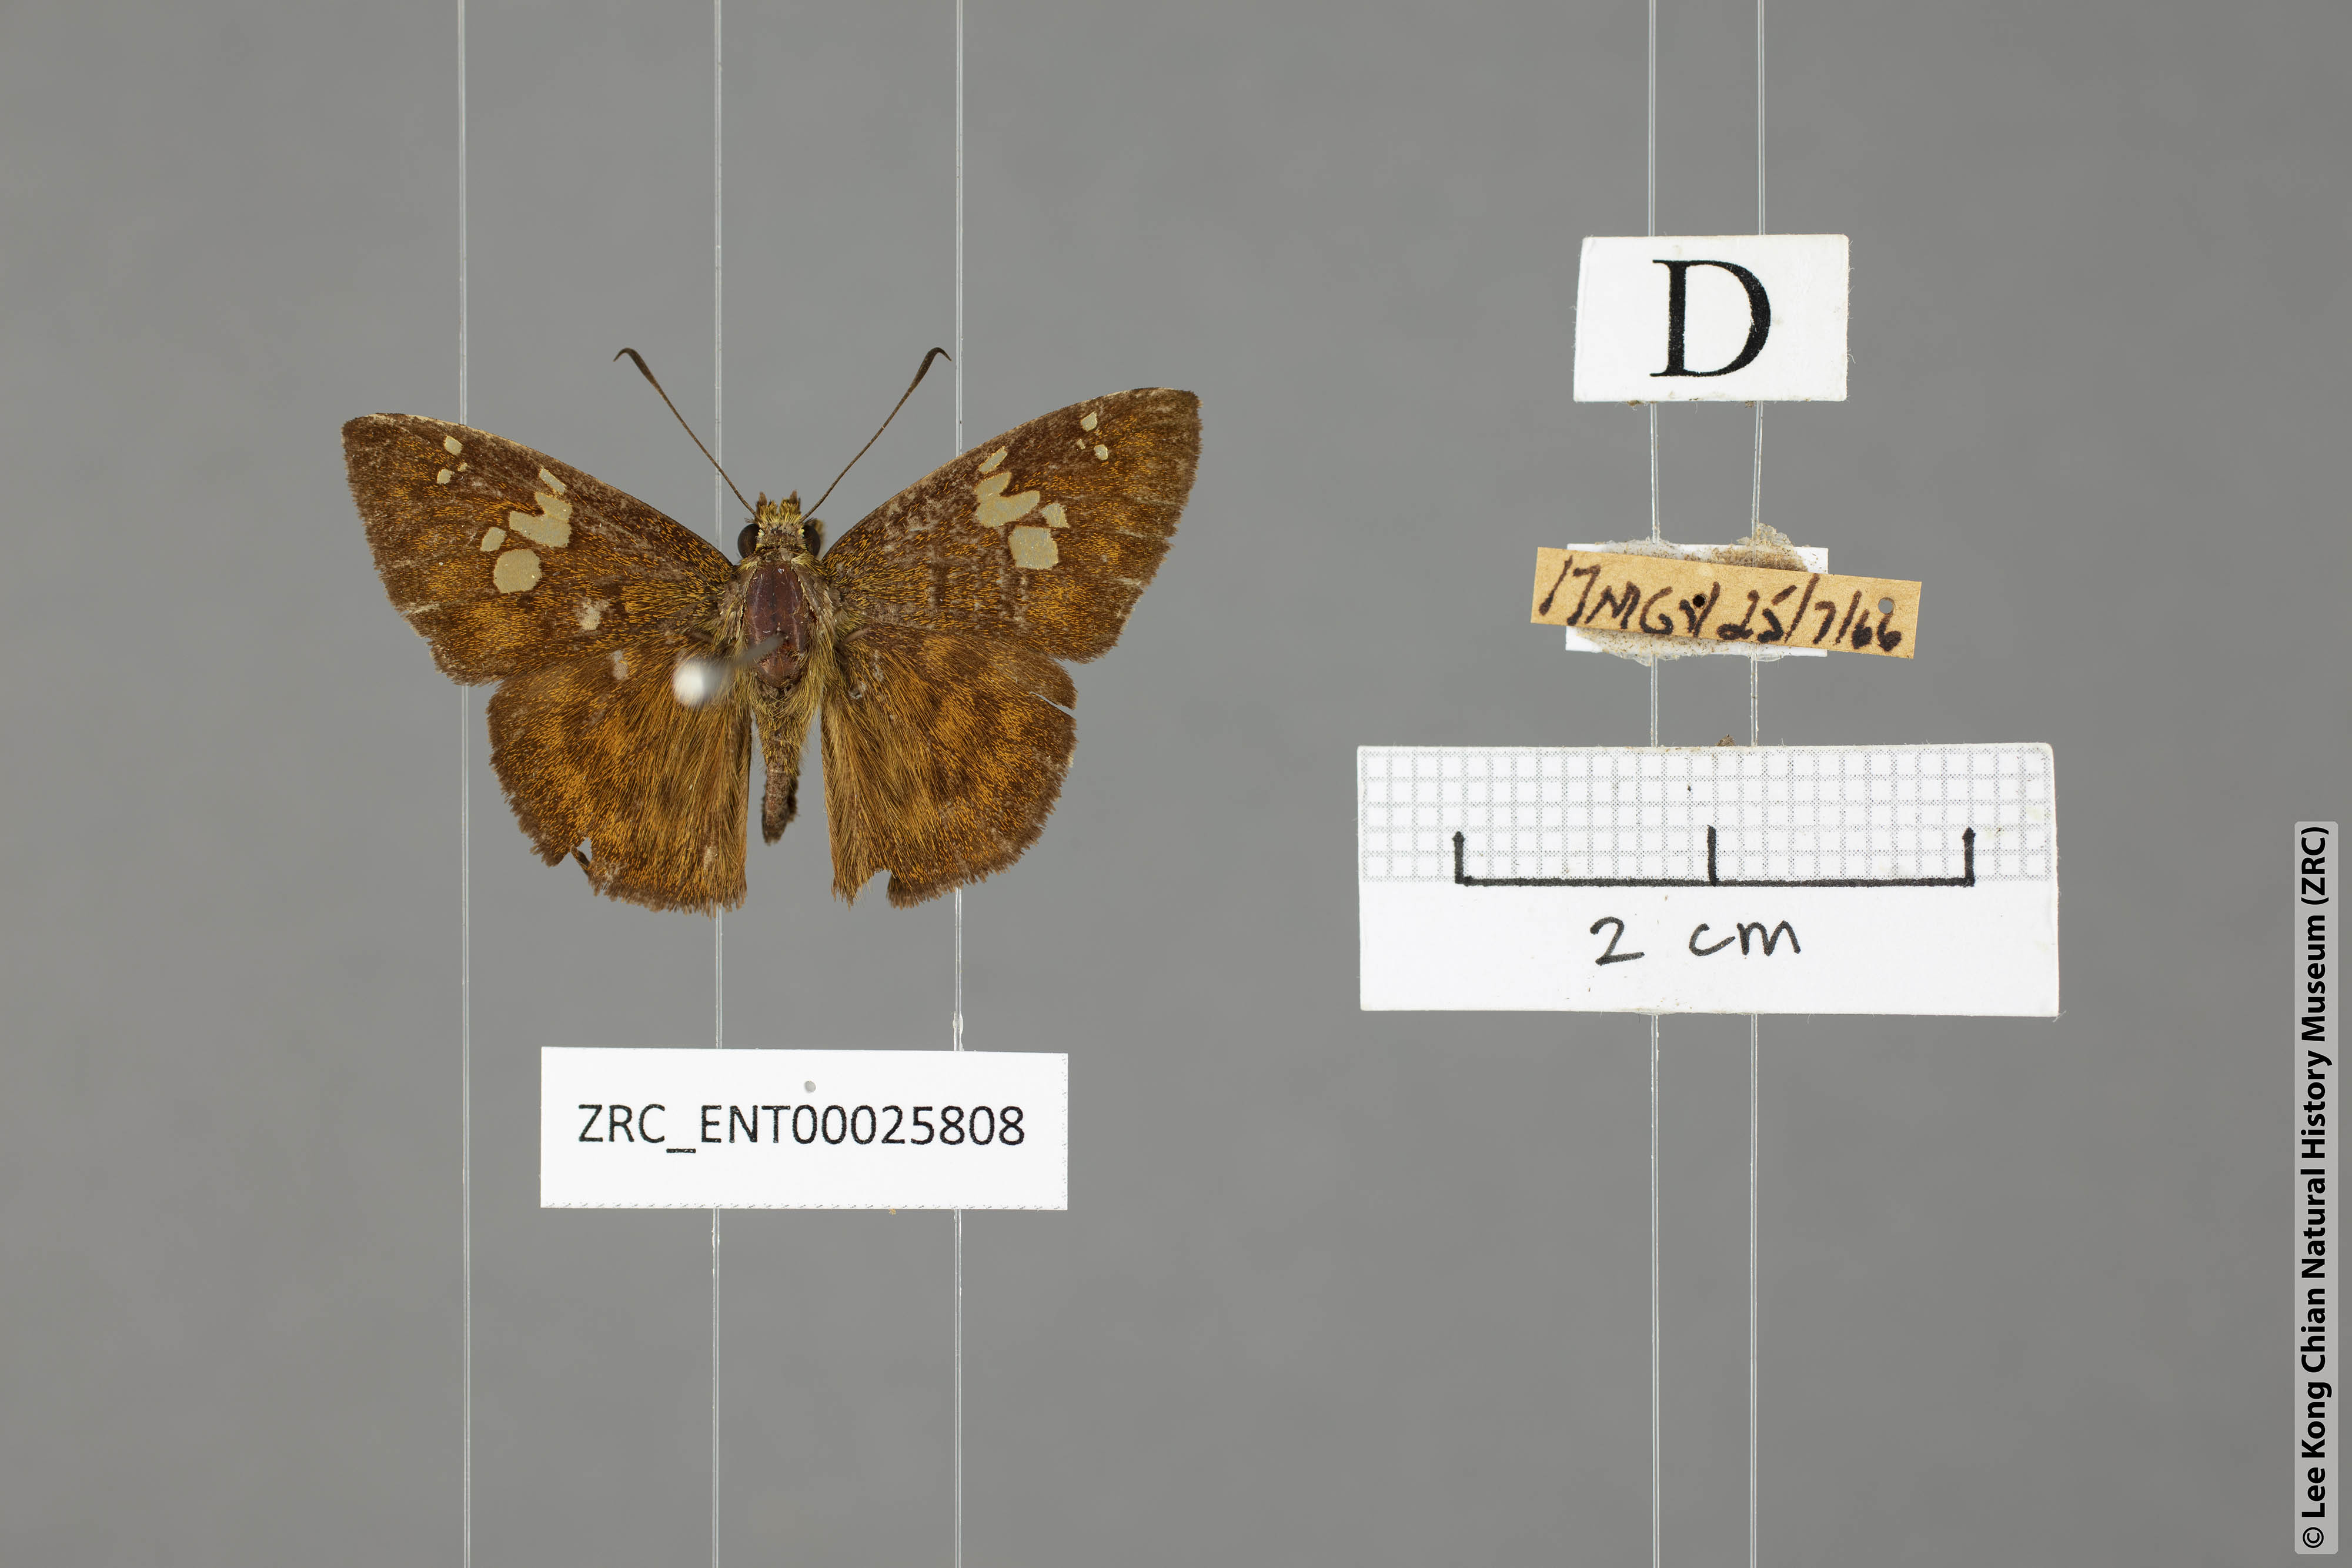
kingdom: Animalia
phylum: Arthropoda
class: Insecta
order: Lepidoptera
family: Hesperiidae
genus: Pseudocoladenia
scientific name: Pseudocoladenia dan
